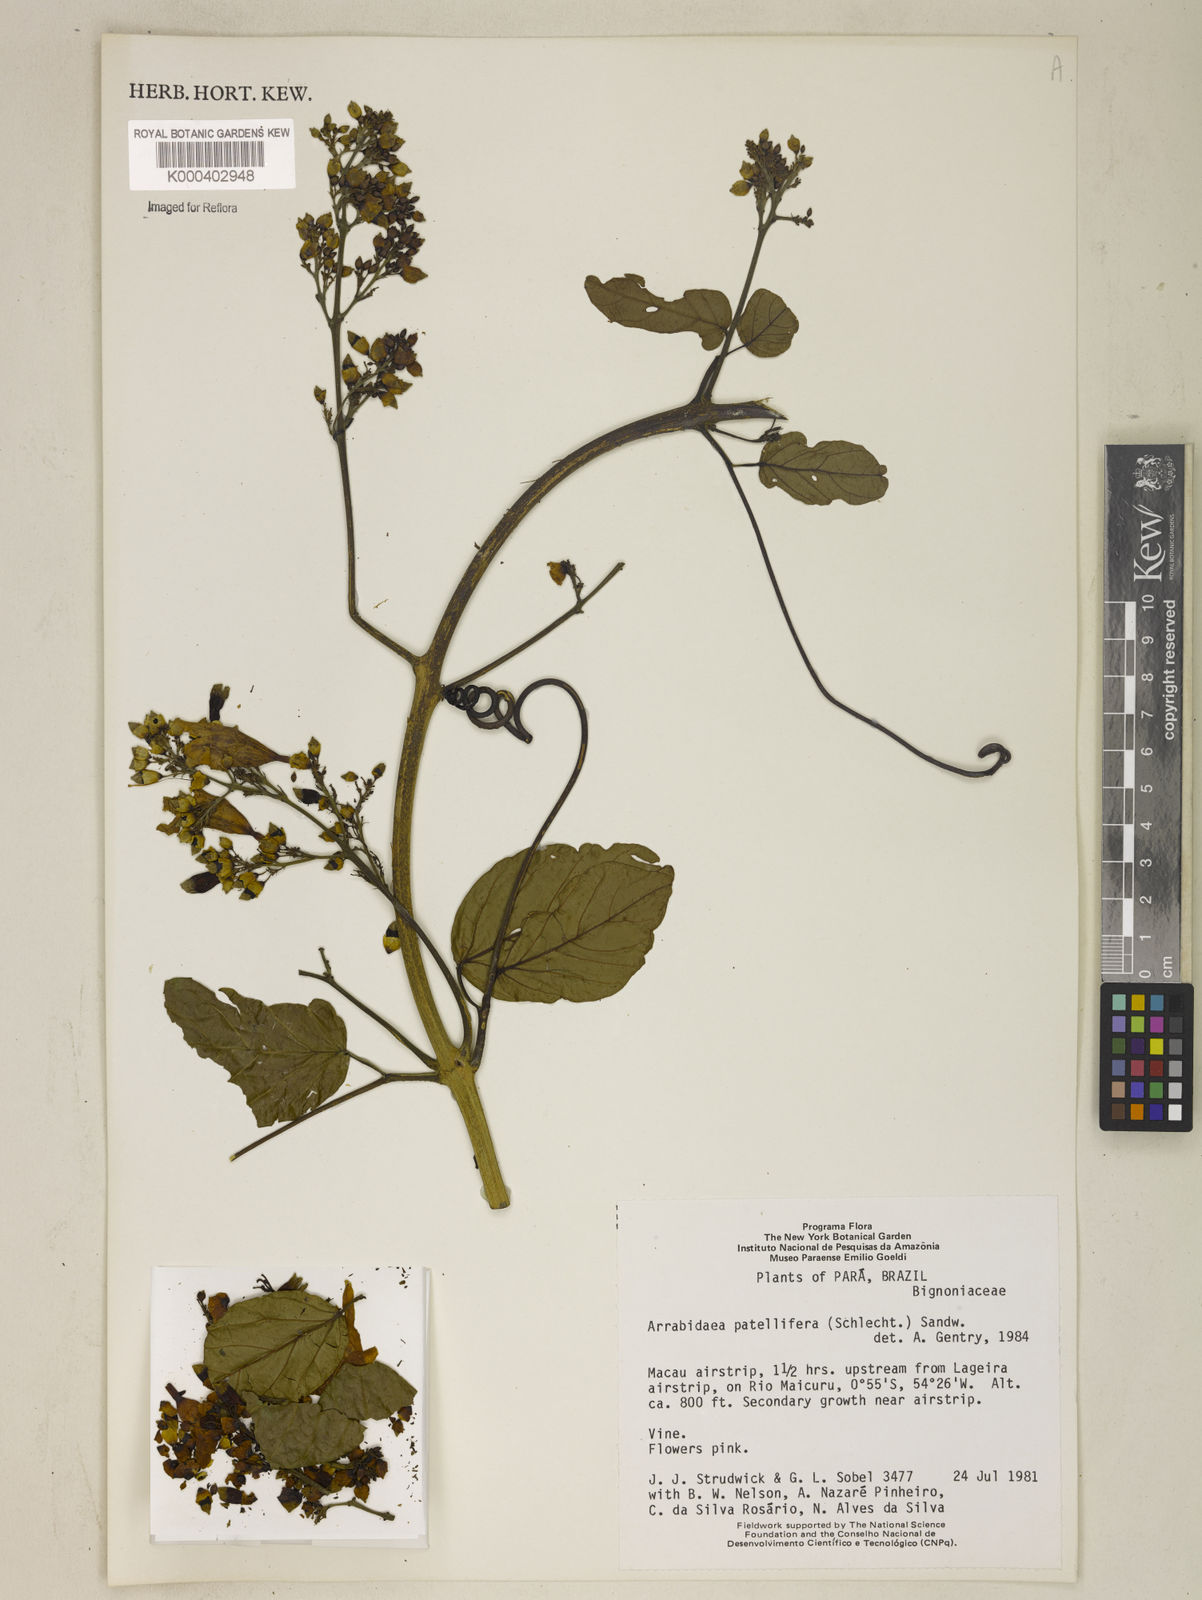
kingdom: Plantae
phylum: Tracheophyta
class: Magnoliopsida
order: Lamiales
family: Bignoniaceae
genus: Fridericia
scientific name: Fridericia patellifera
